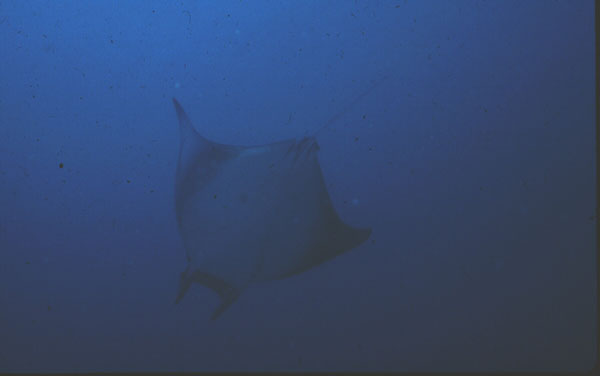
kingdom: Animalia
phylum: Chordata
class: Elasmobranchii
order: Myliobatiformes
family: Myliobatidae
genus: Mobula
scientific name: Mobula birostris
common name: Manta ray
